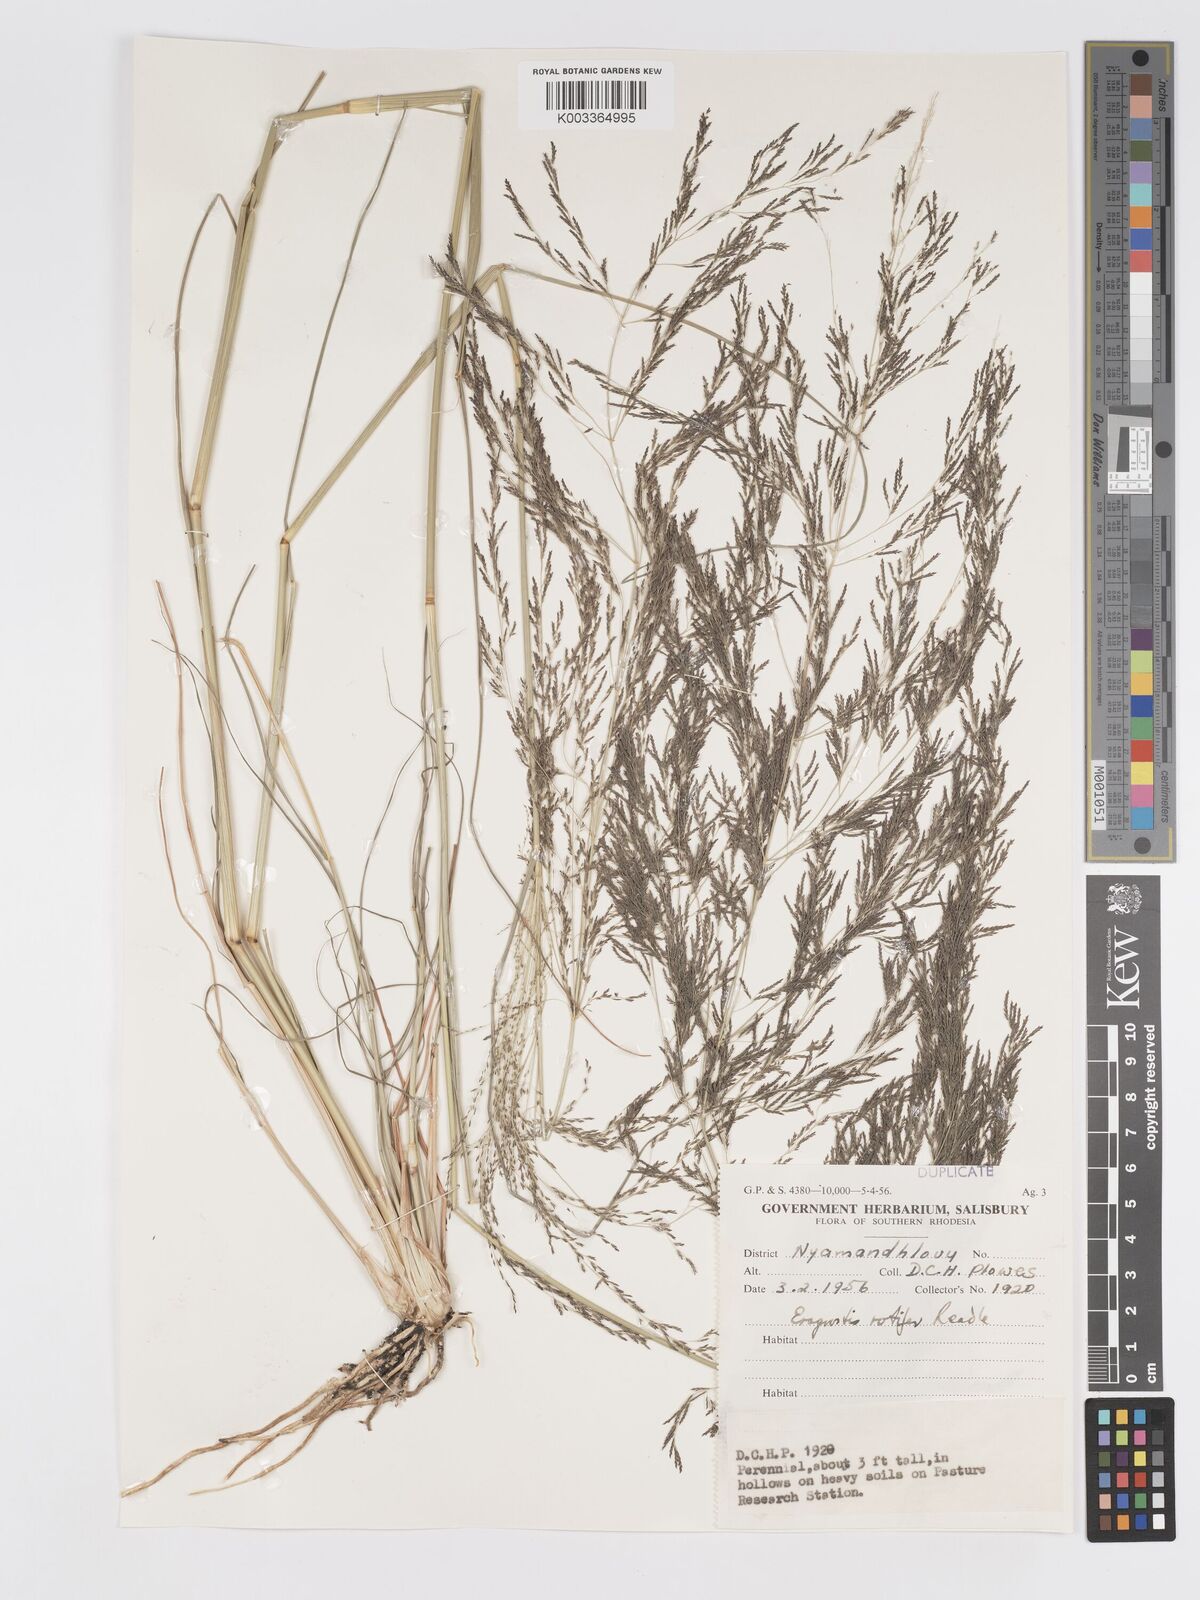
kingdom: Plantae
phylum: Tracheophyta
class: Liliopsida
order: Poales
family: Poaceae
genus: Eragrostis
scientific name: Eragrostis rotifer
